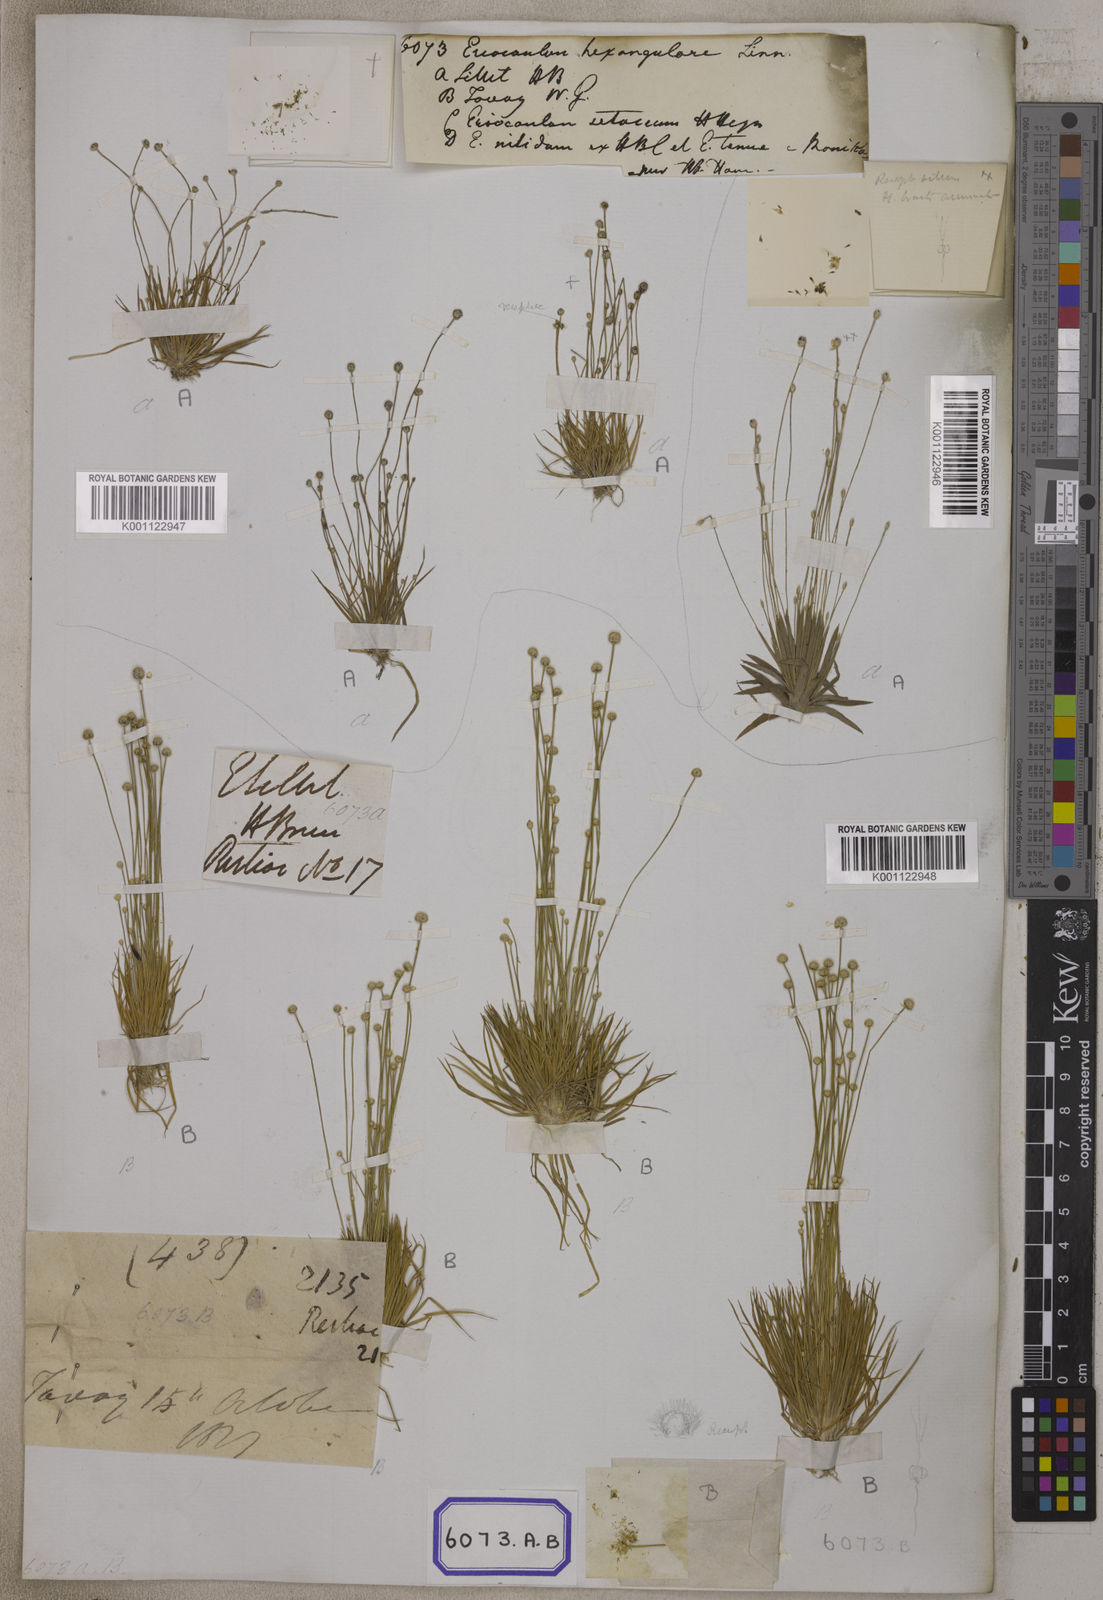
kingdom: Plantae
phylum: Tracheophyta
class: Liliopsida
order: Poales
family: Eriocaulaceae
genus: Eriocaulon
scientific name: Eriocaulon
